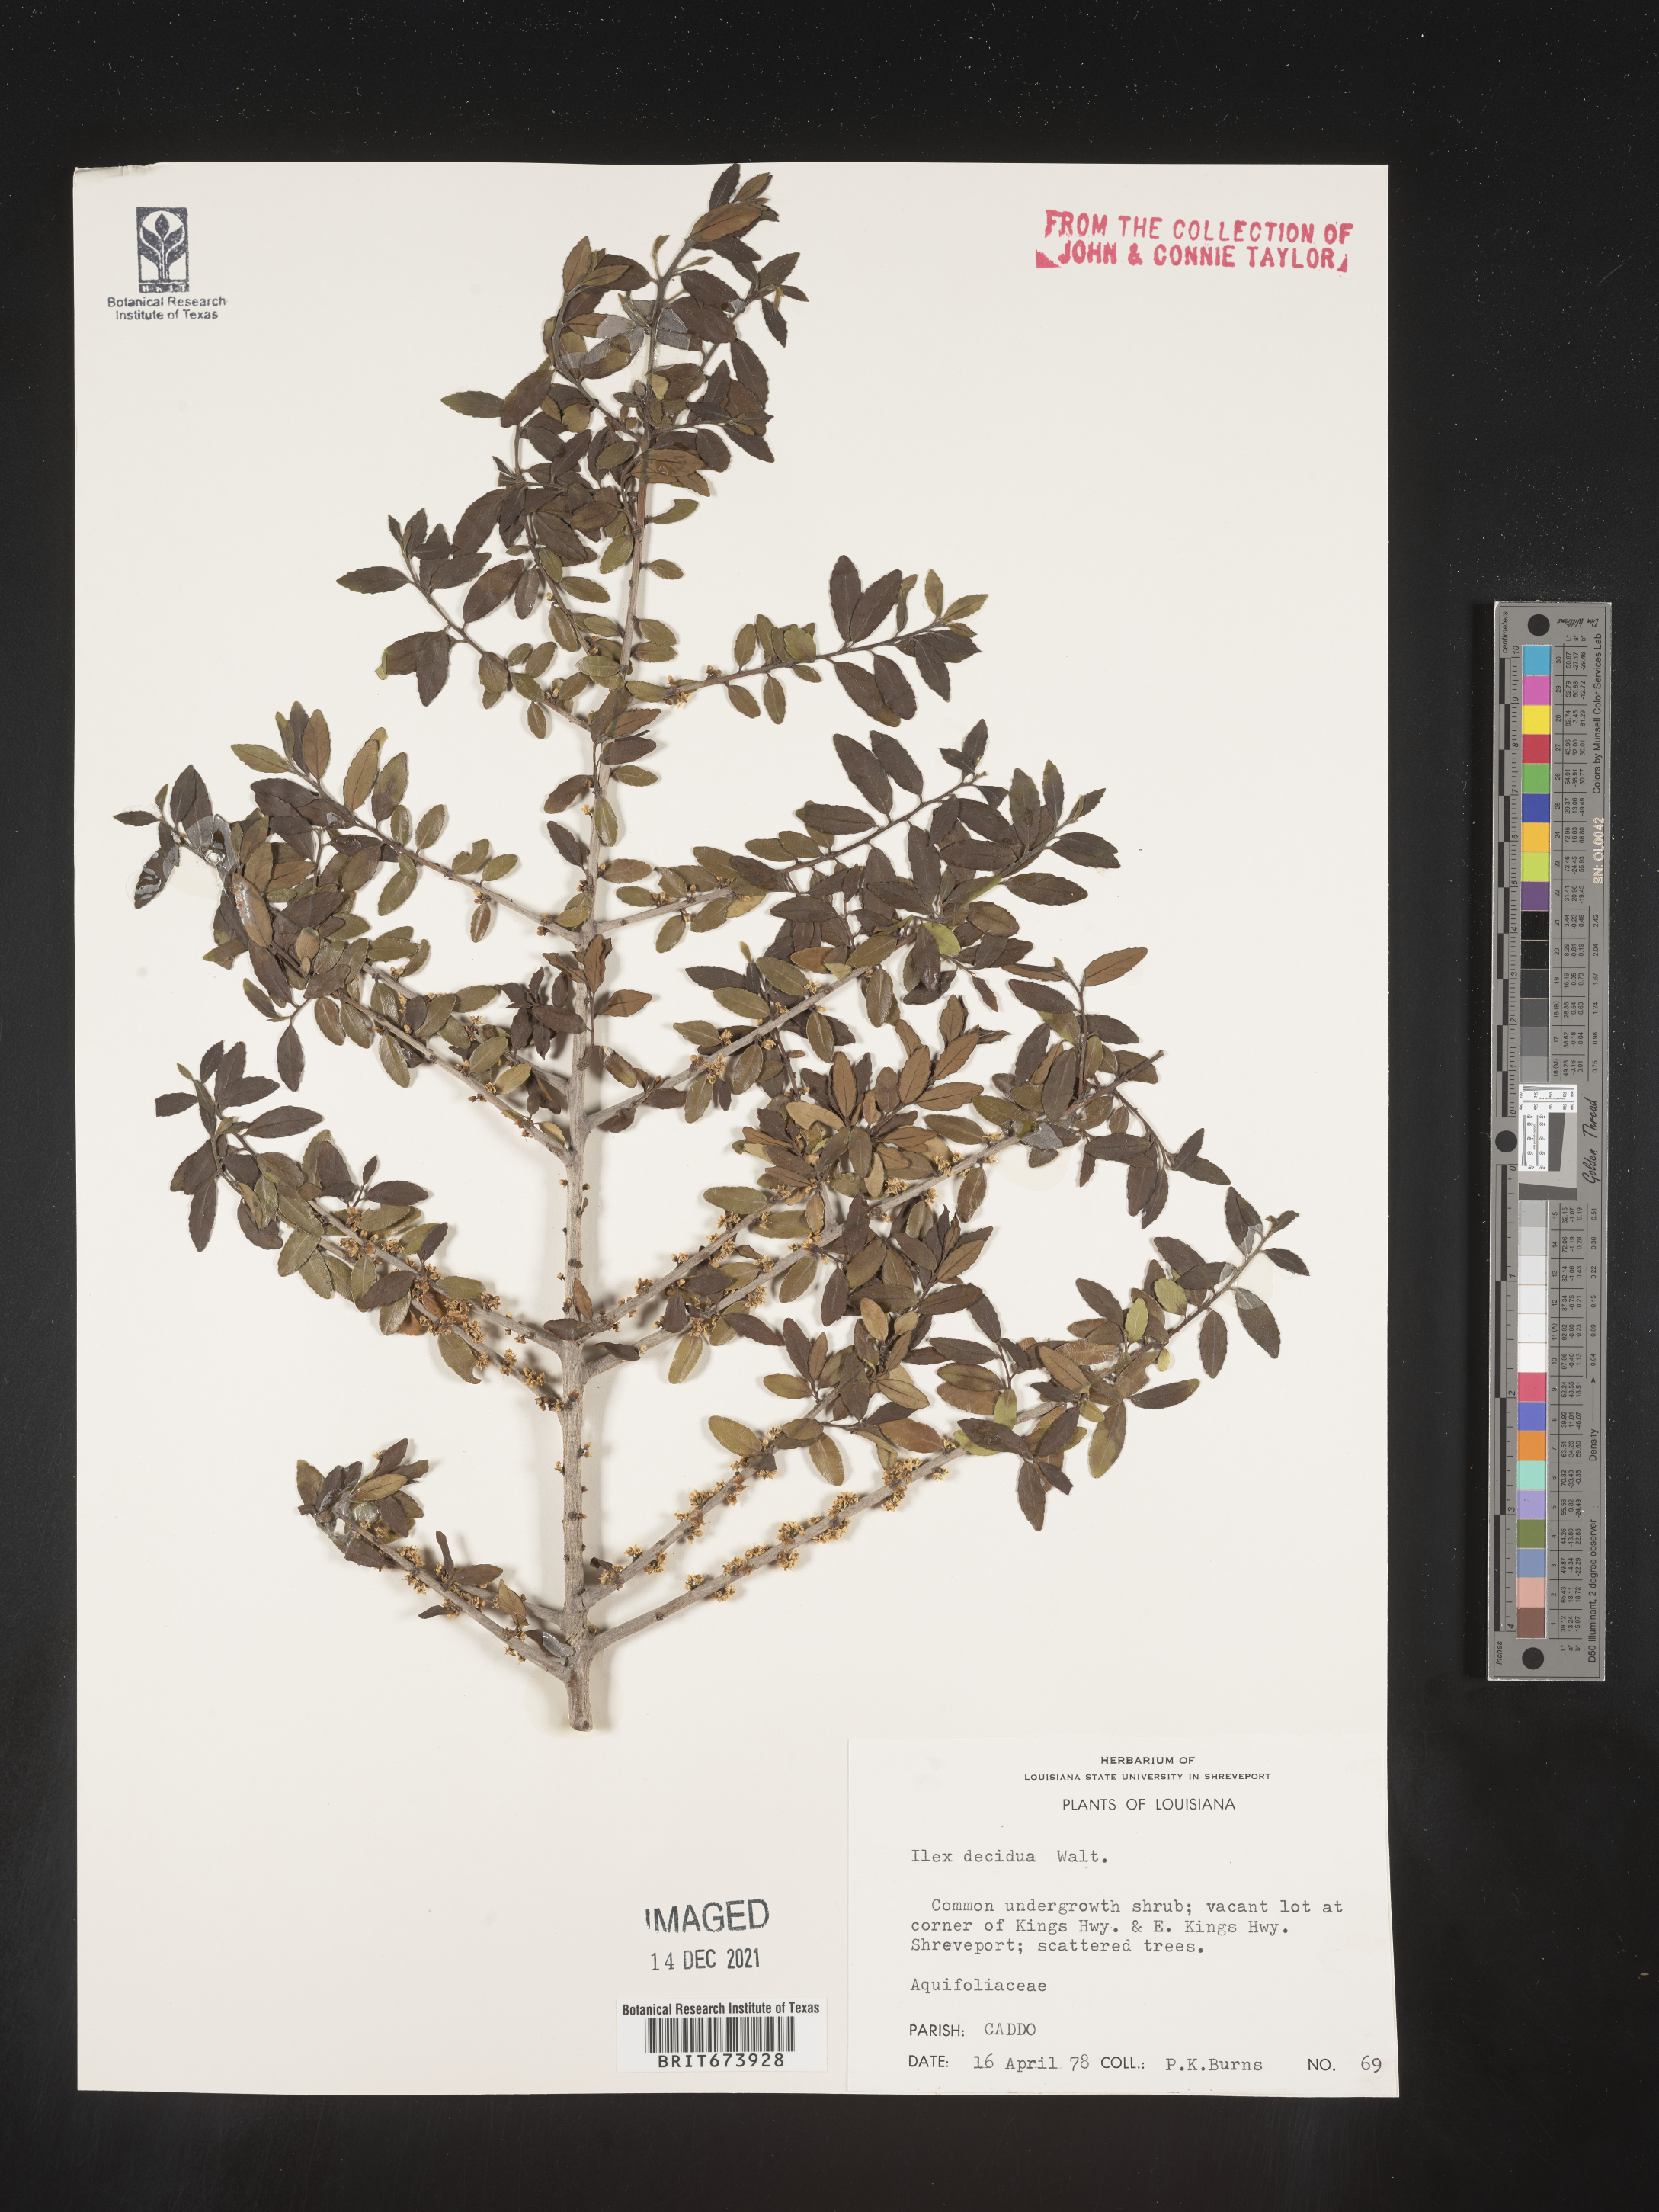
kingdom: Plantae
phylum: Tracheophyta
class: Magnoliopsida
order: Aquifoliales
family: Aquifoliaceae
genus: Ilex
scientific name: Ilex decidua
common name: Possum-haw
